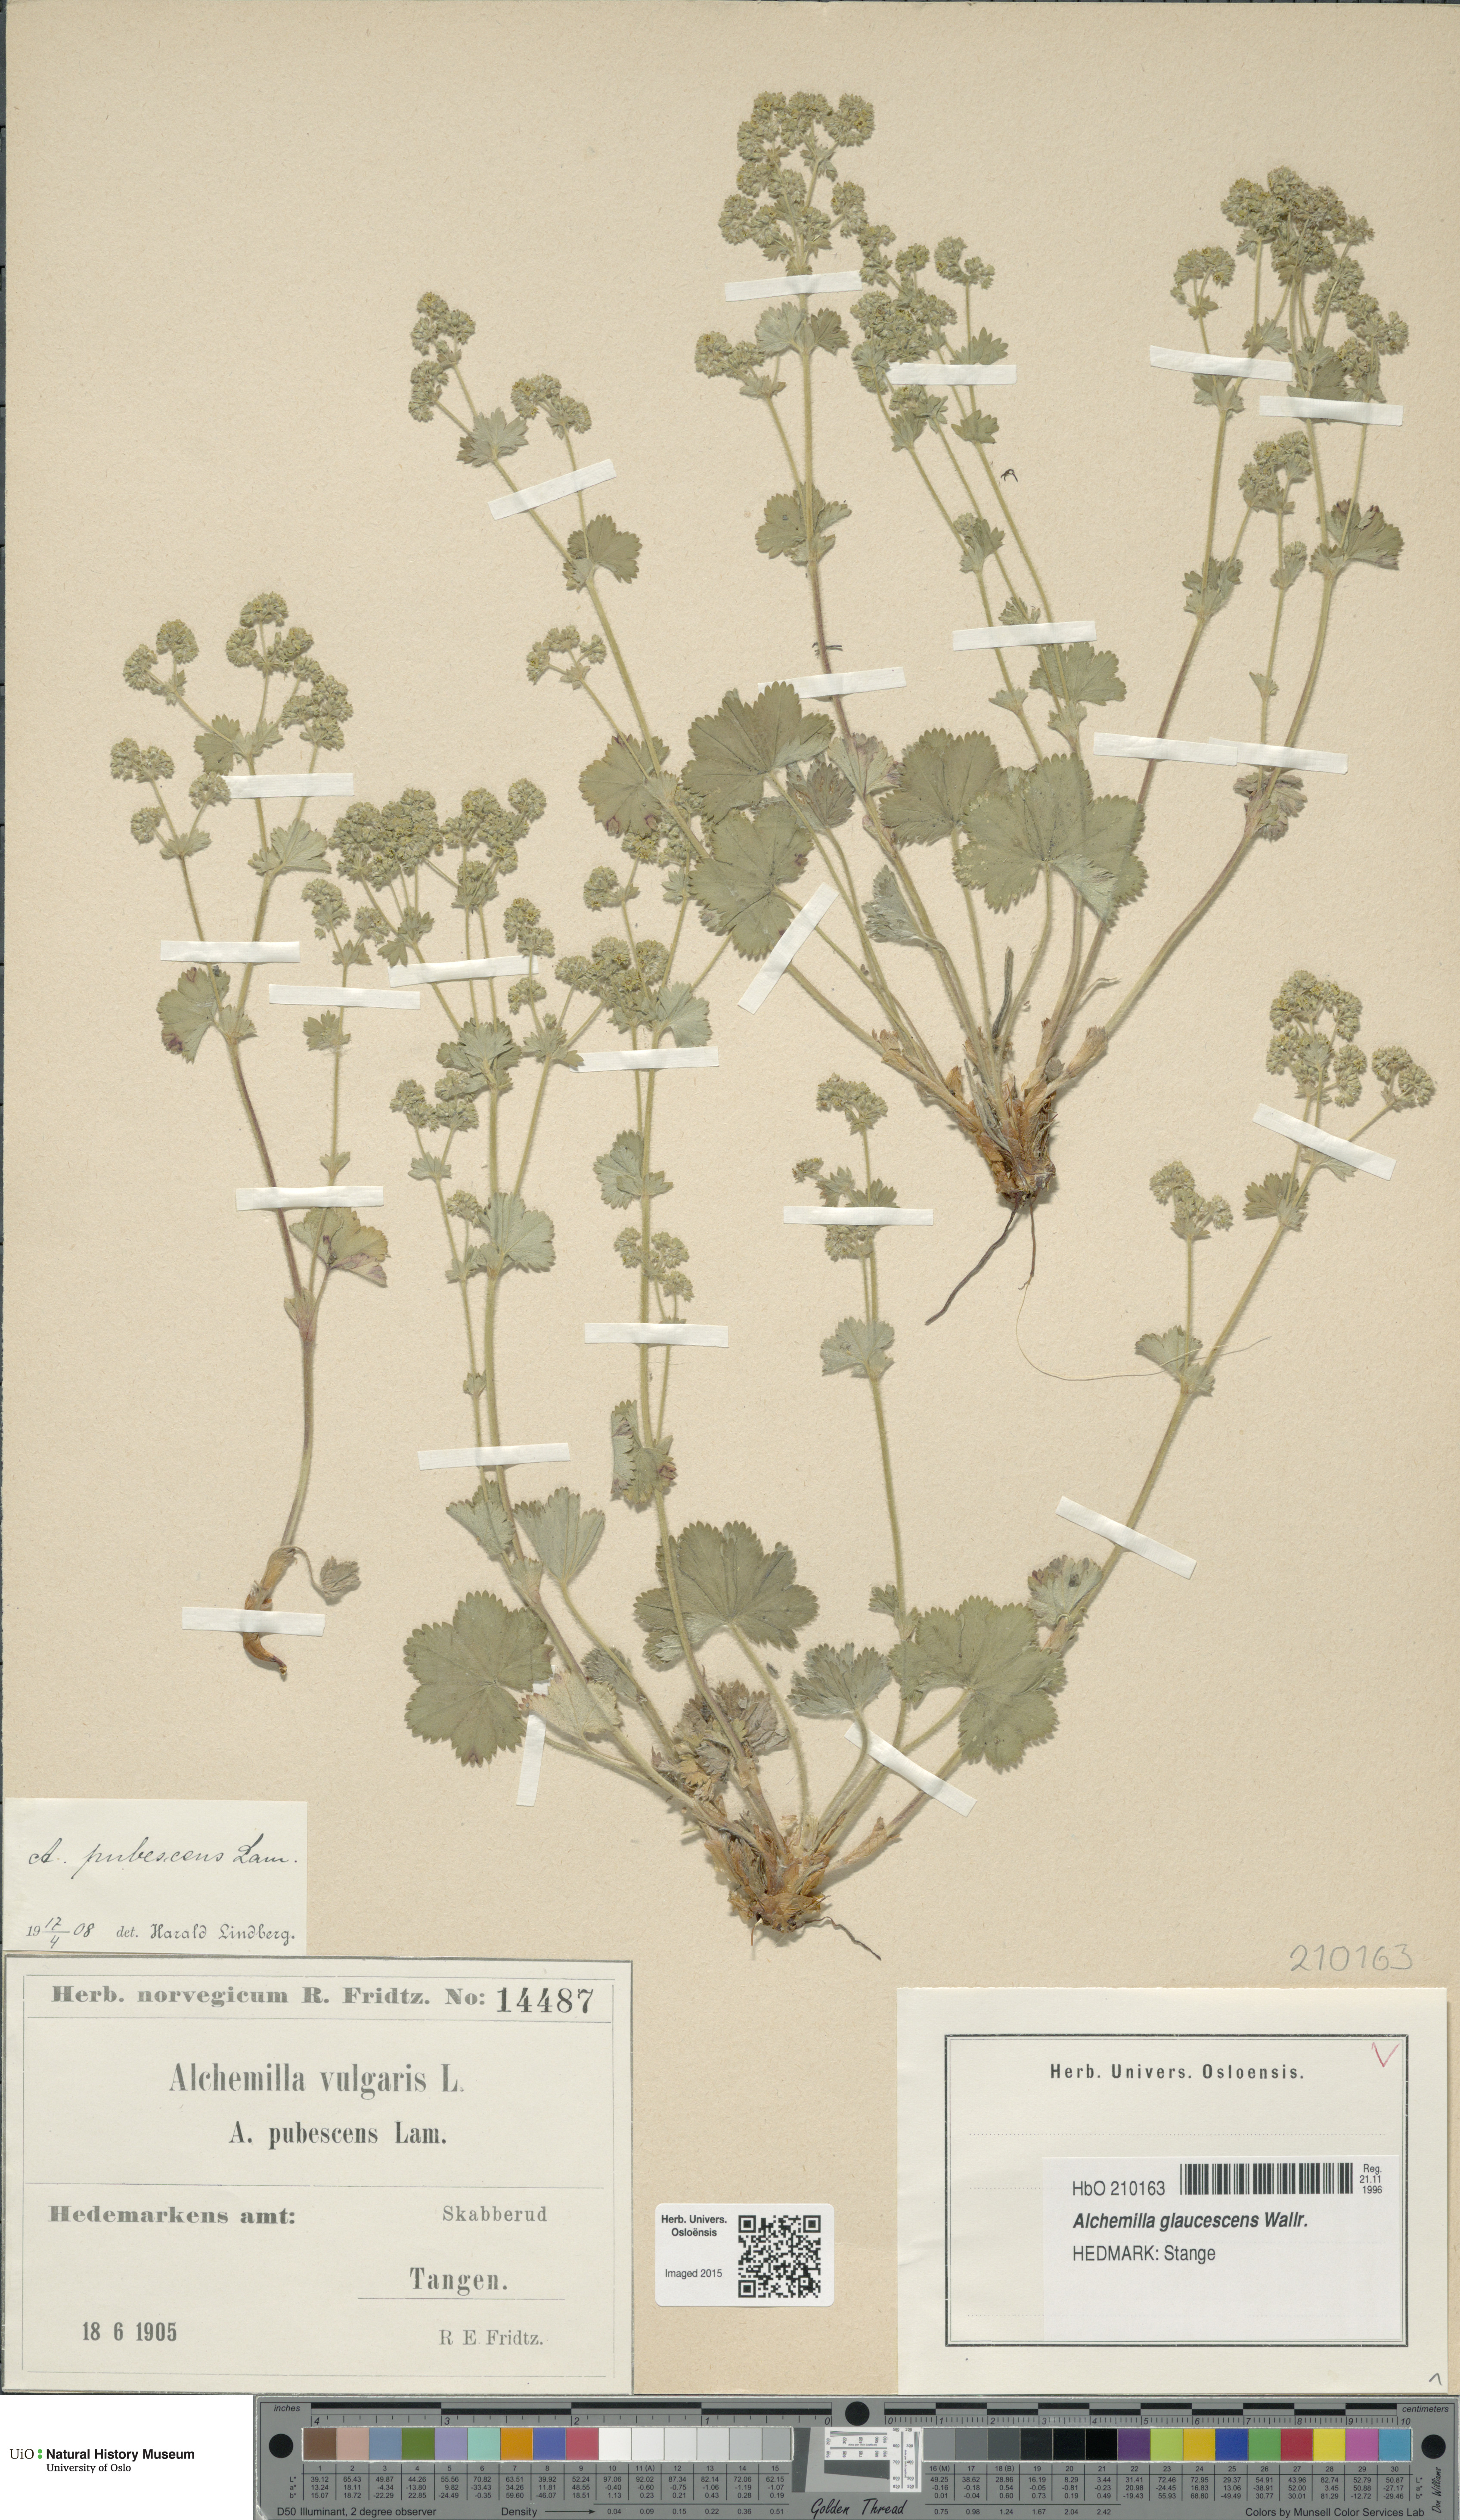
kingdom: Plantae
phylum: Tracheophyta
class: Magnoliopsida
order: Rosales
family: Rosaceae
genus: Alchemilla
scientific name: Alchemilla glaucescens
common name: Silky lady's mantle
